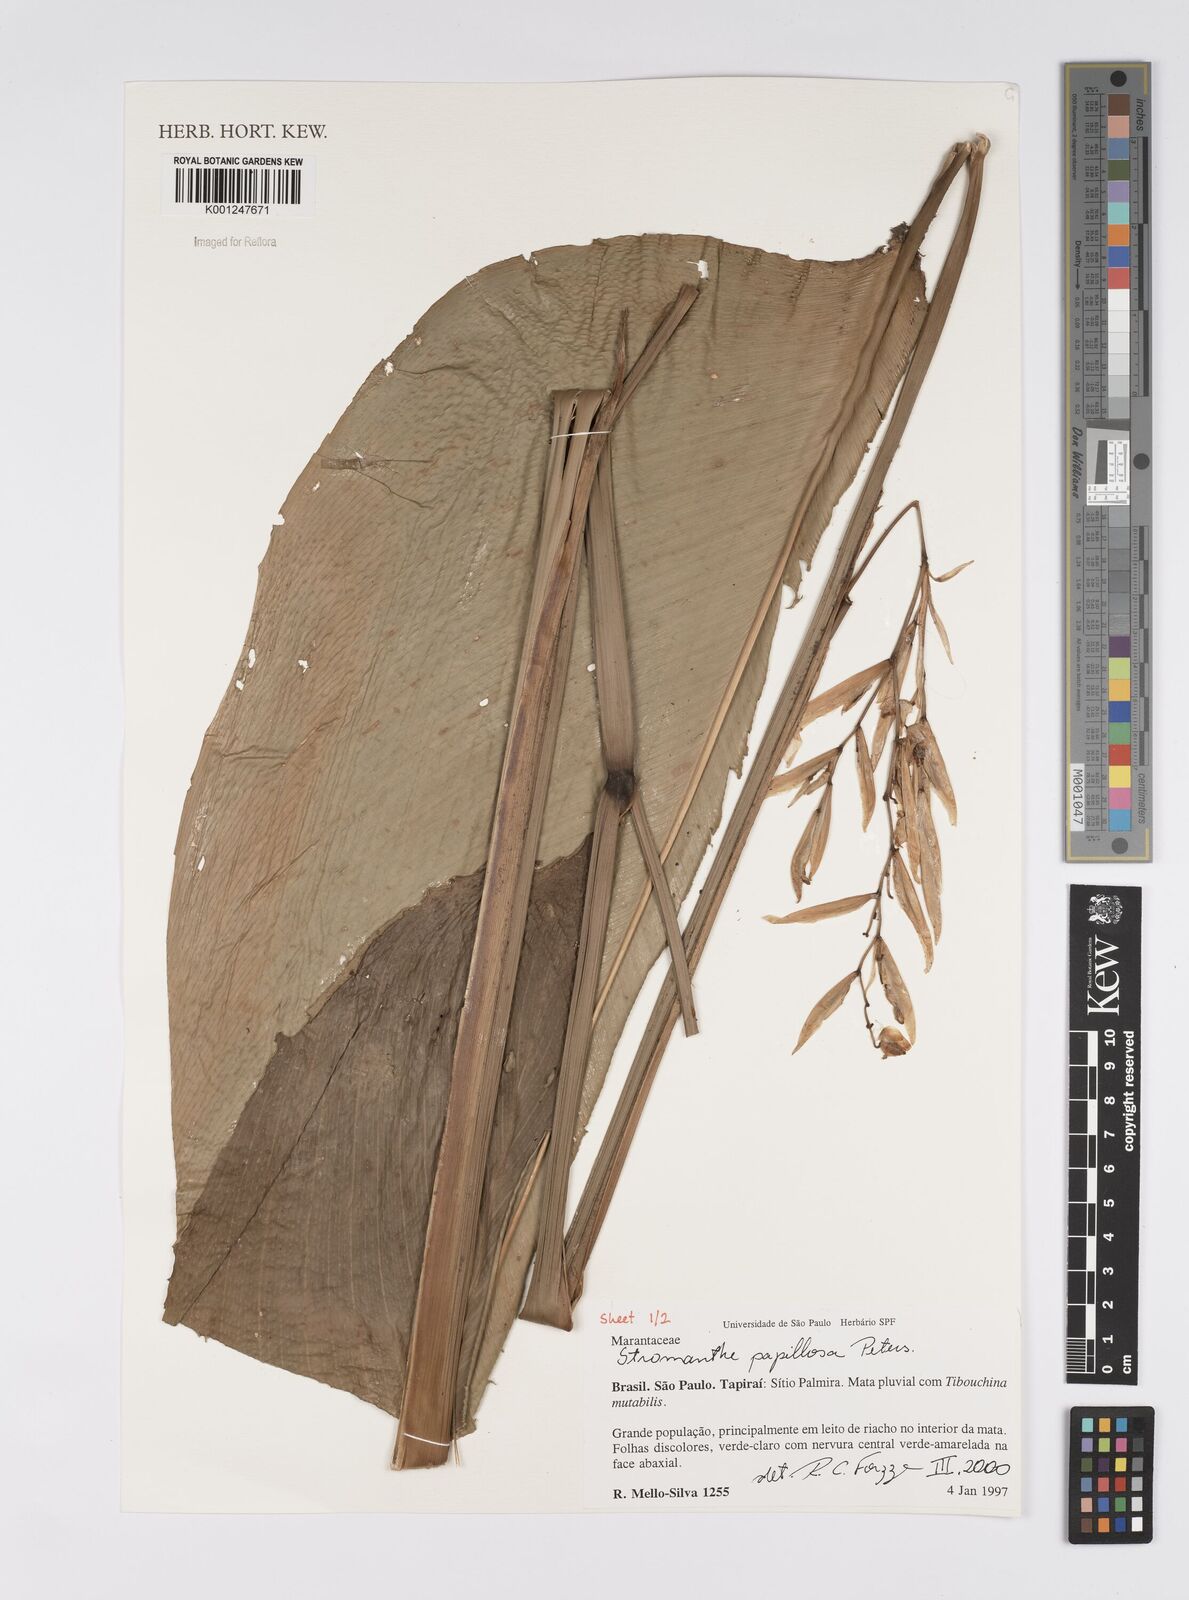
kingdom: Plantae
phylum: Tracheophyta
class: Liliopsida
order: Zingiberales
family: Marantaceae
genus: Stromanthe
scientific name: Stromanthe papillosa
